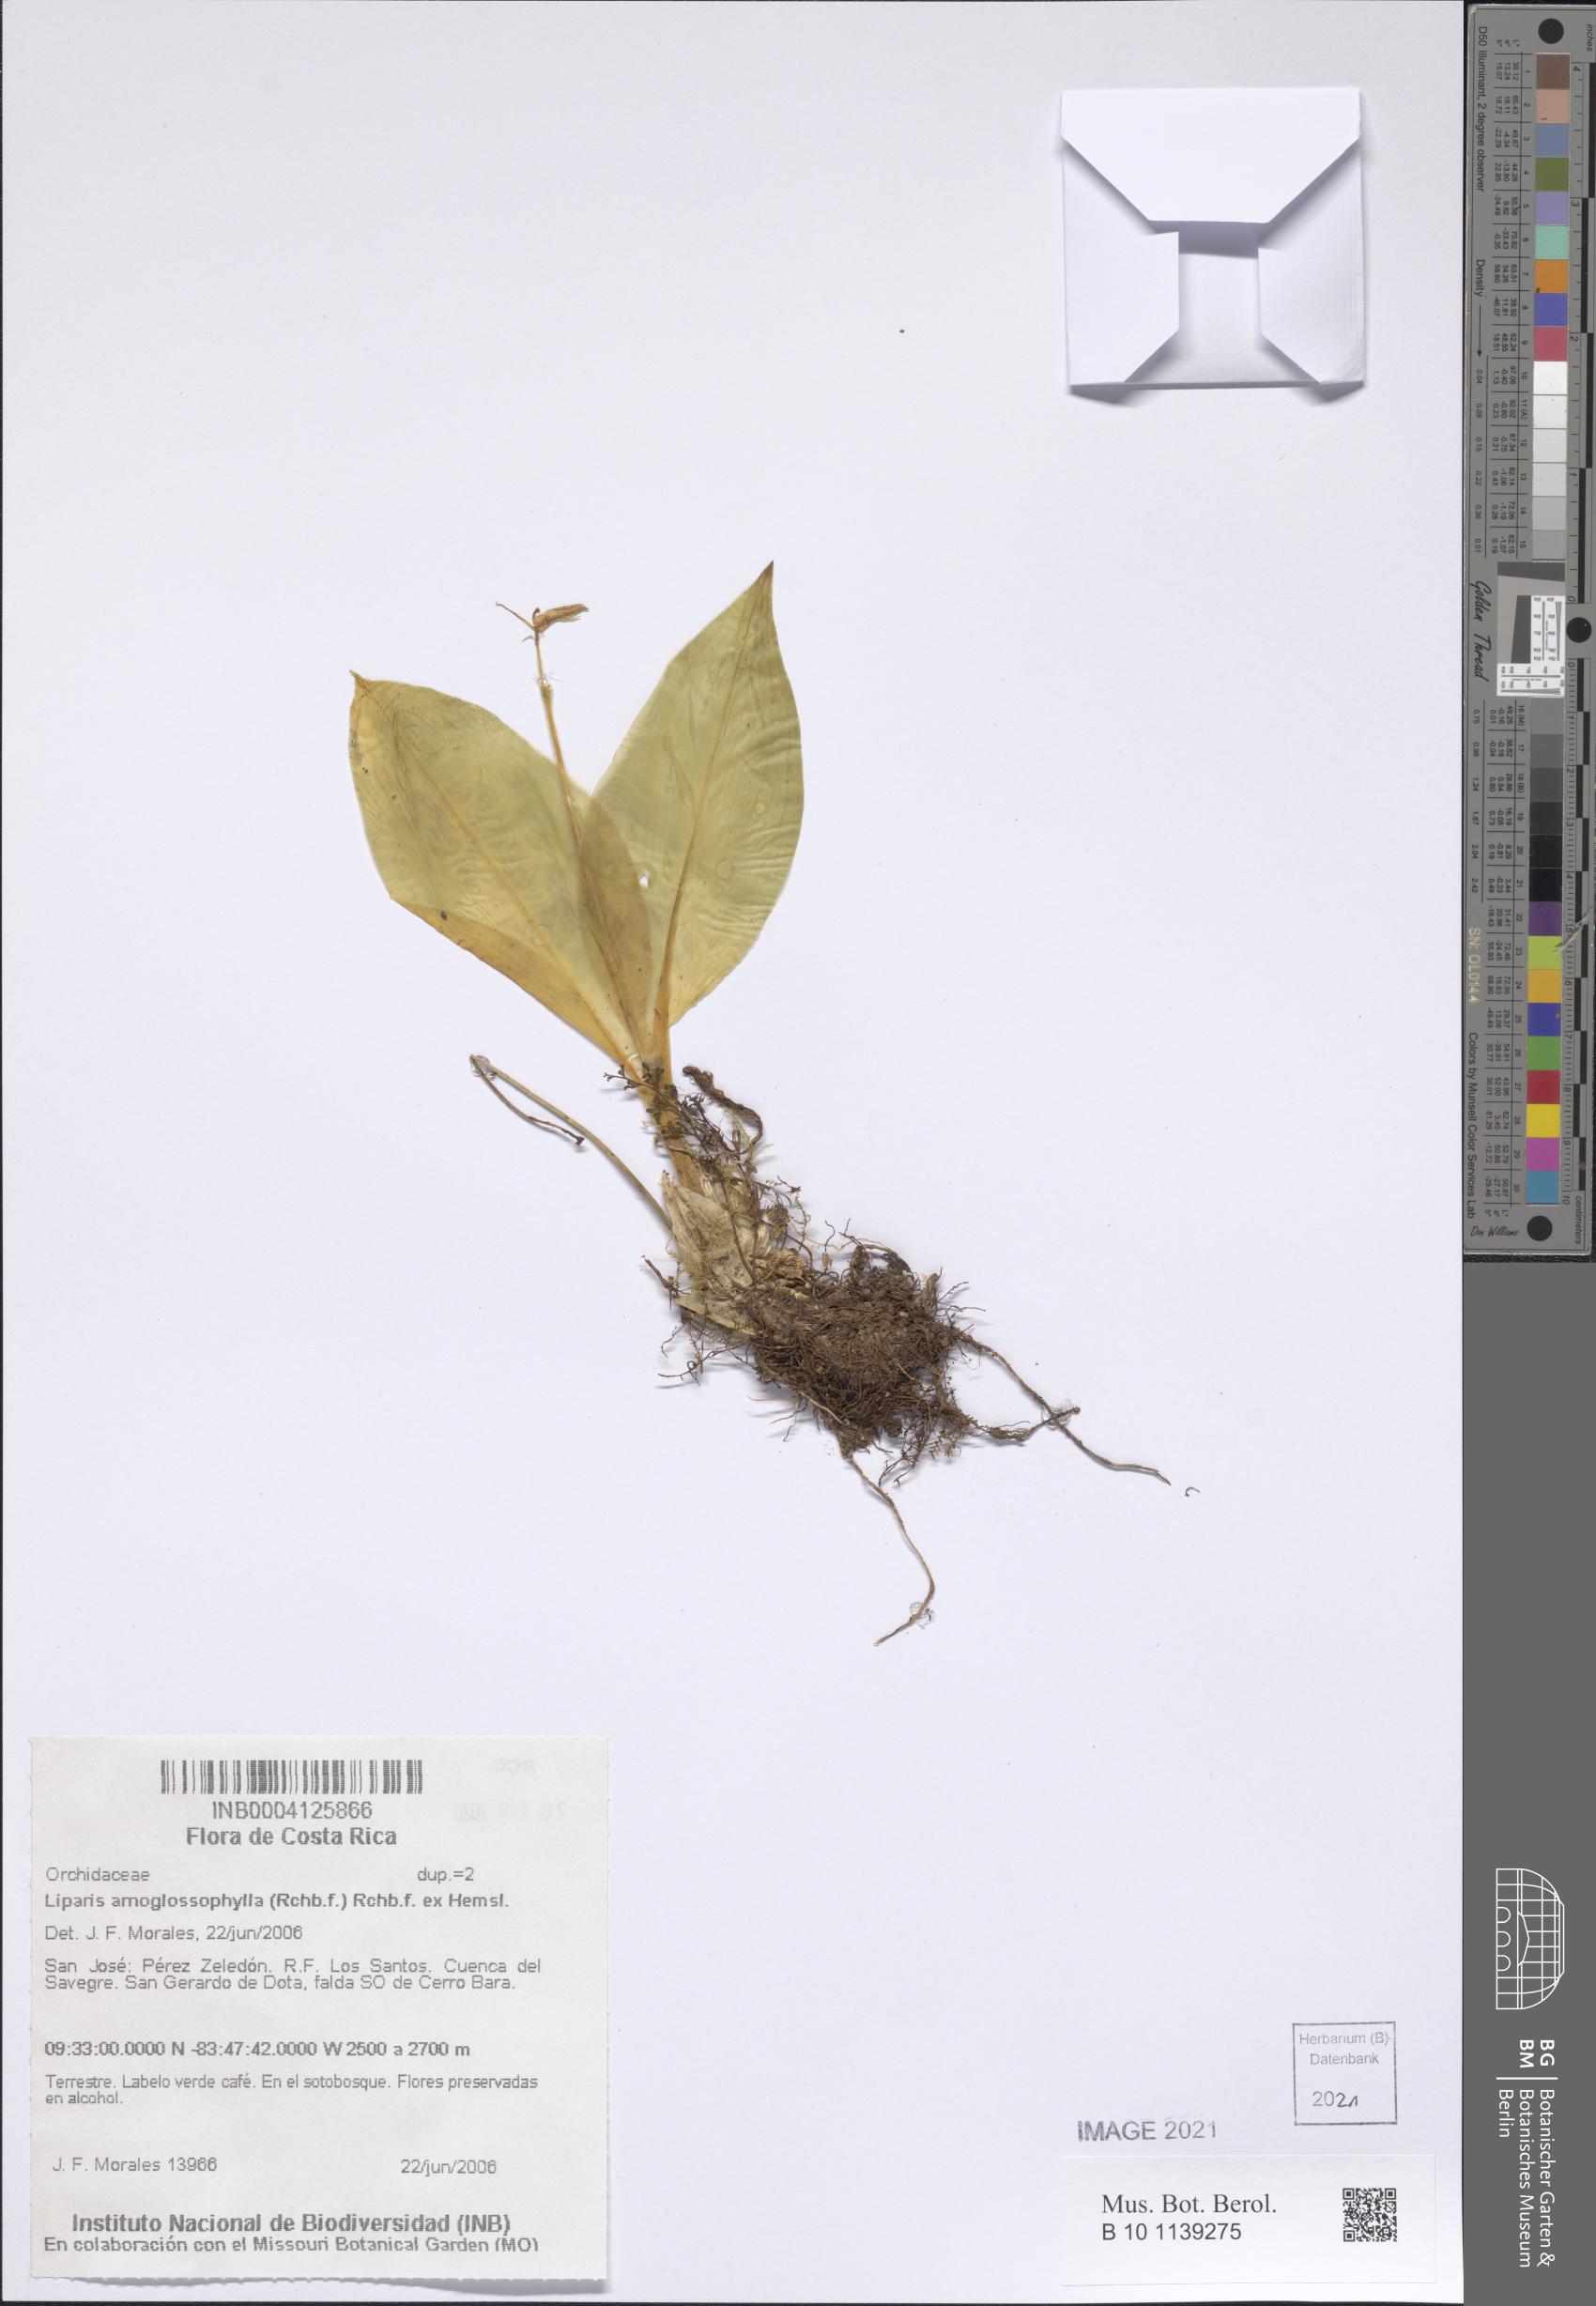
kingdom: Plantae
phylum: Tracheophyta
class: Liliopsida
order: Asparagales
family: Orchidaceae
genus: Liparis
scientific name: Liparis arnoglossophylla
